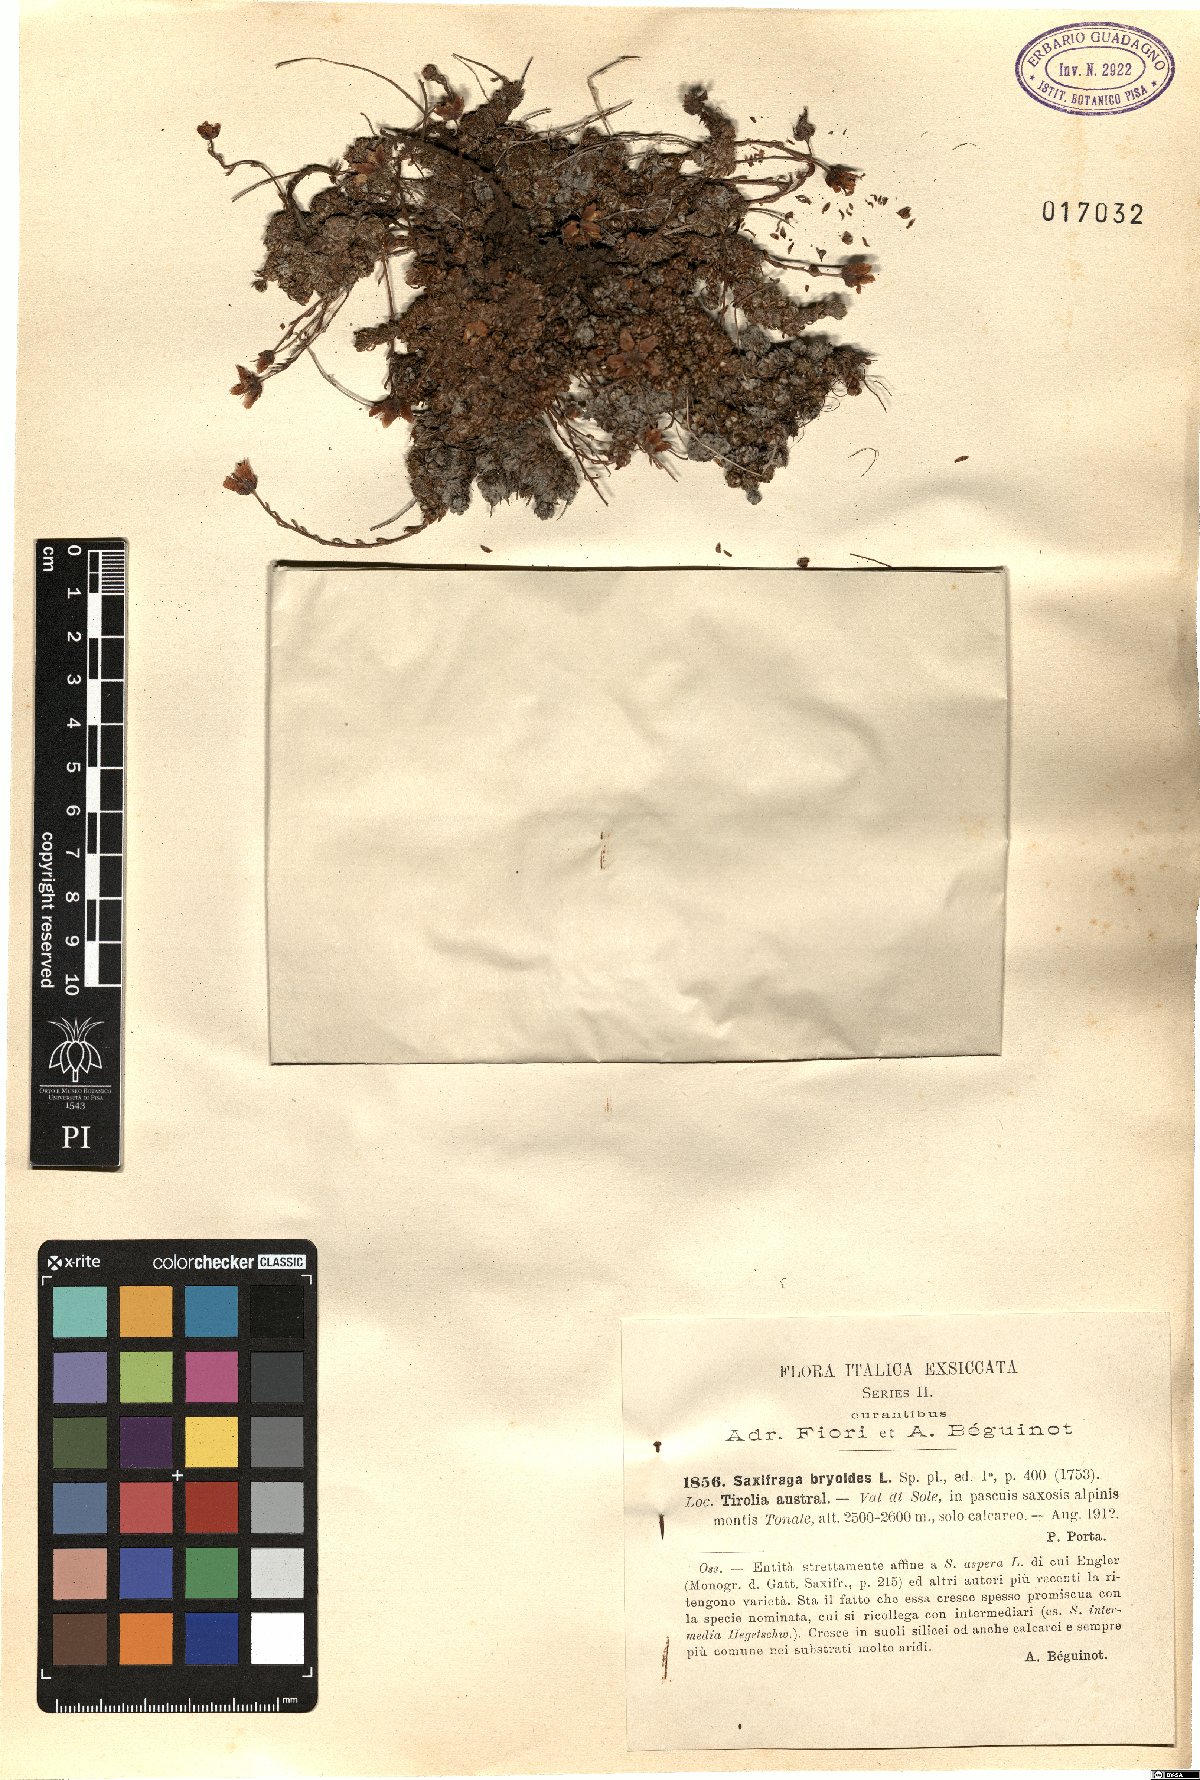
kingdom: Plantae
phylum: Tracheophyta
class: Magnoliopsida
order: Saxifragales
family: Saxifragaceae
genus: Saxifraga
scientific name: Saxifraga bryoides
